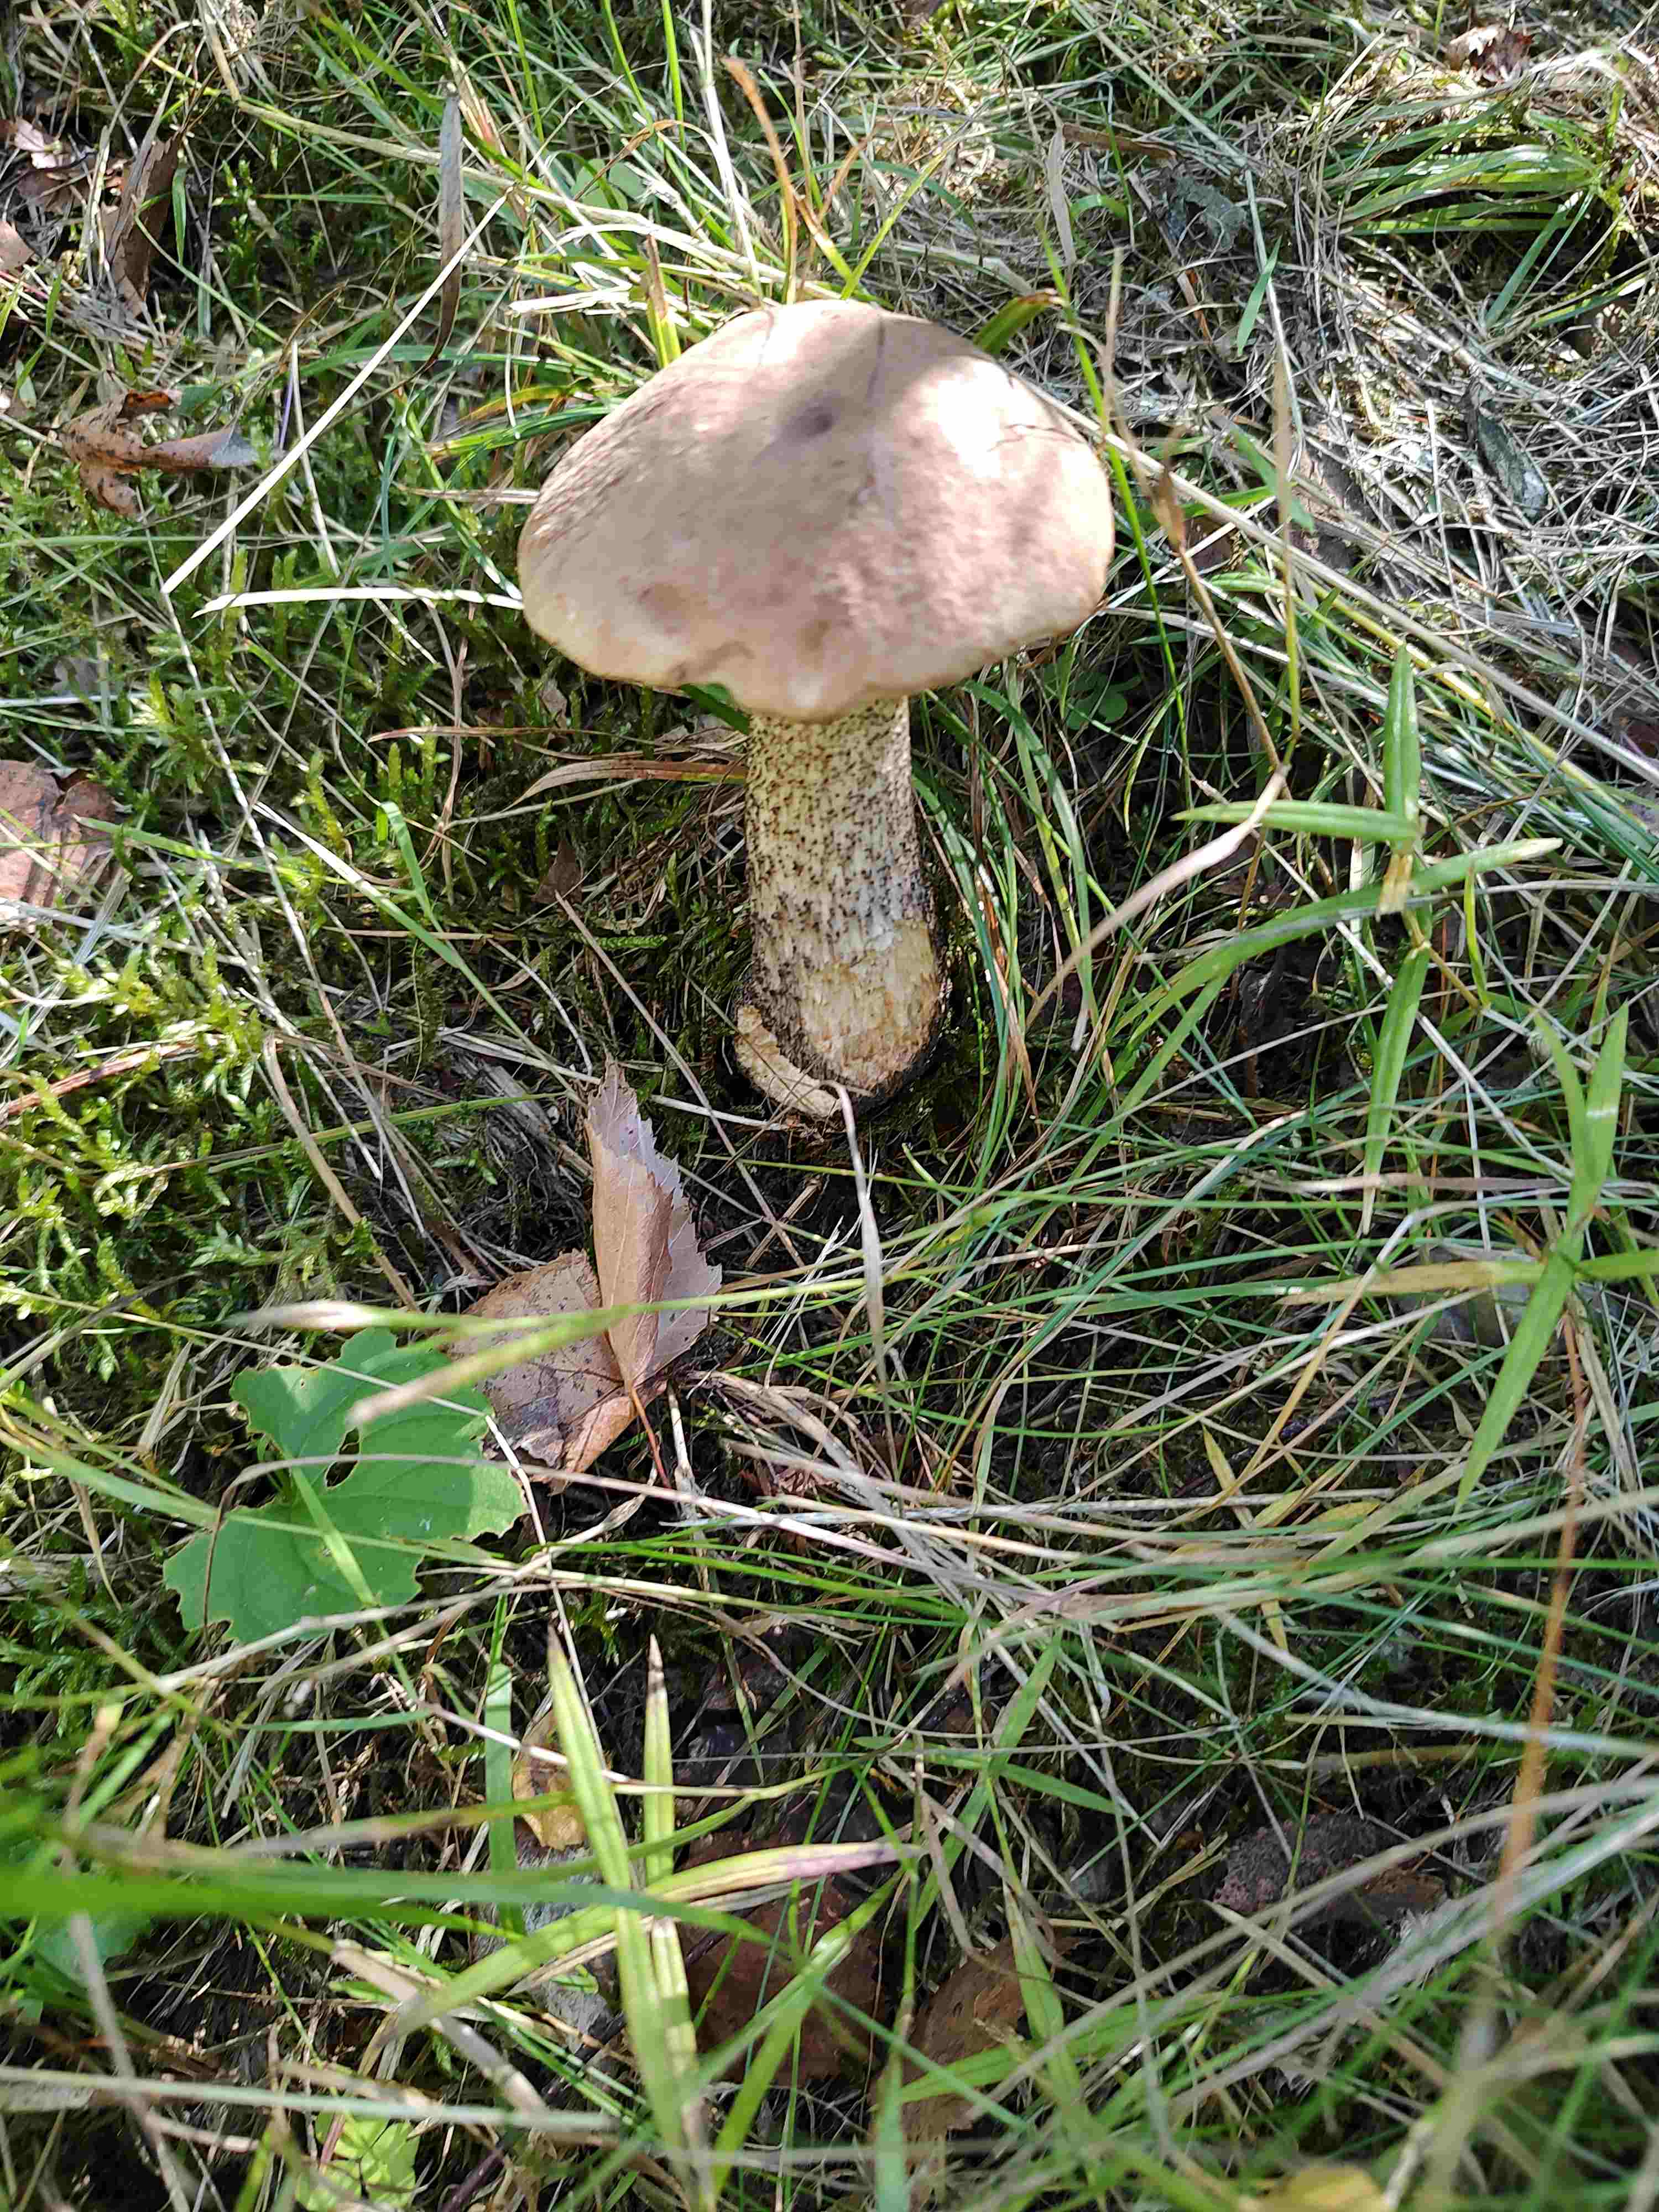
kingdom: Fungi
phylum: Basidiomycota
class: Agaricomycetes
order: Boletales
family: Boletaceae
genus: Leccinum
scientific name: Leccinum scabrum
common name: brun skælrørhat
